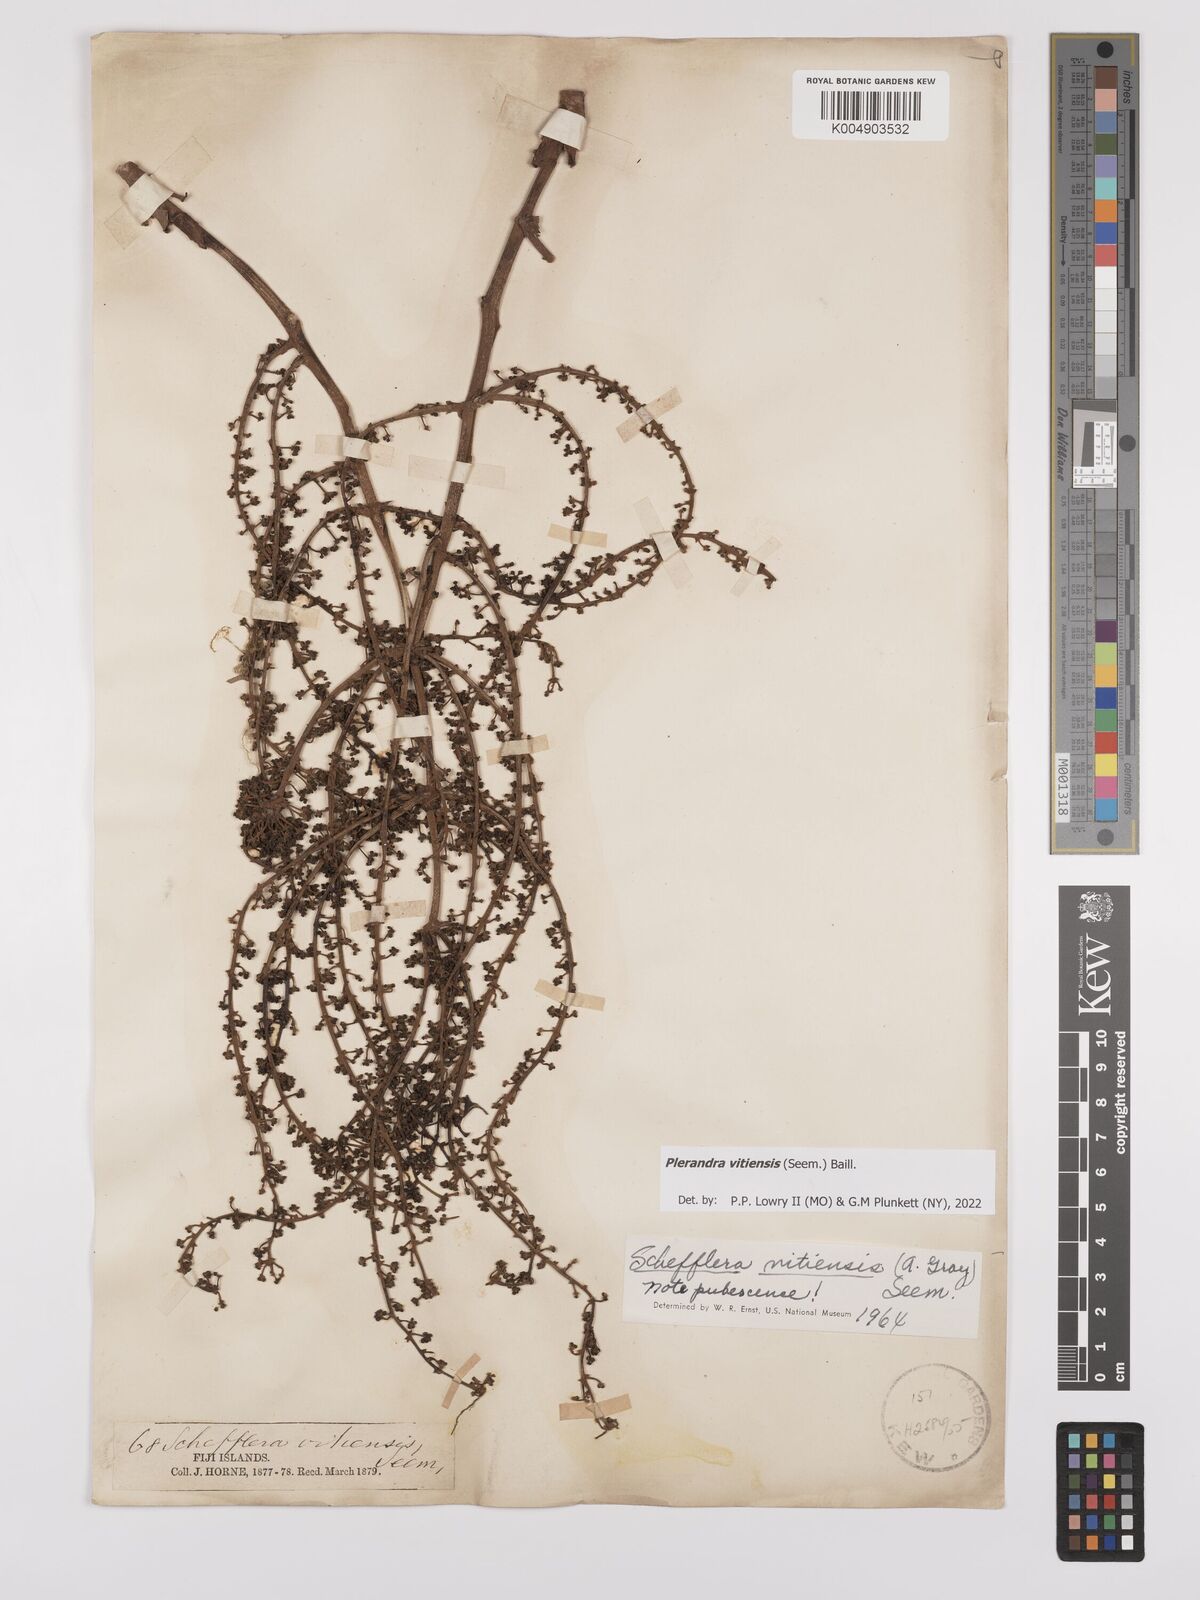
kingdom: Plantae
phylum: Tracheophyta
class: Magnoliopsida
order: Apiales
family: Araliaceae
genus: Schefflera
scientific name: Schefflera vitiensis
